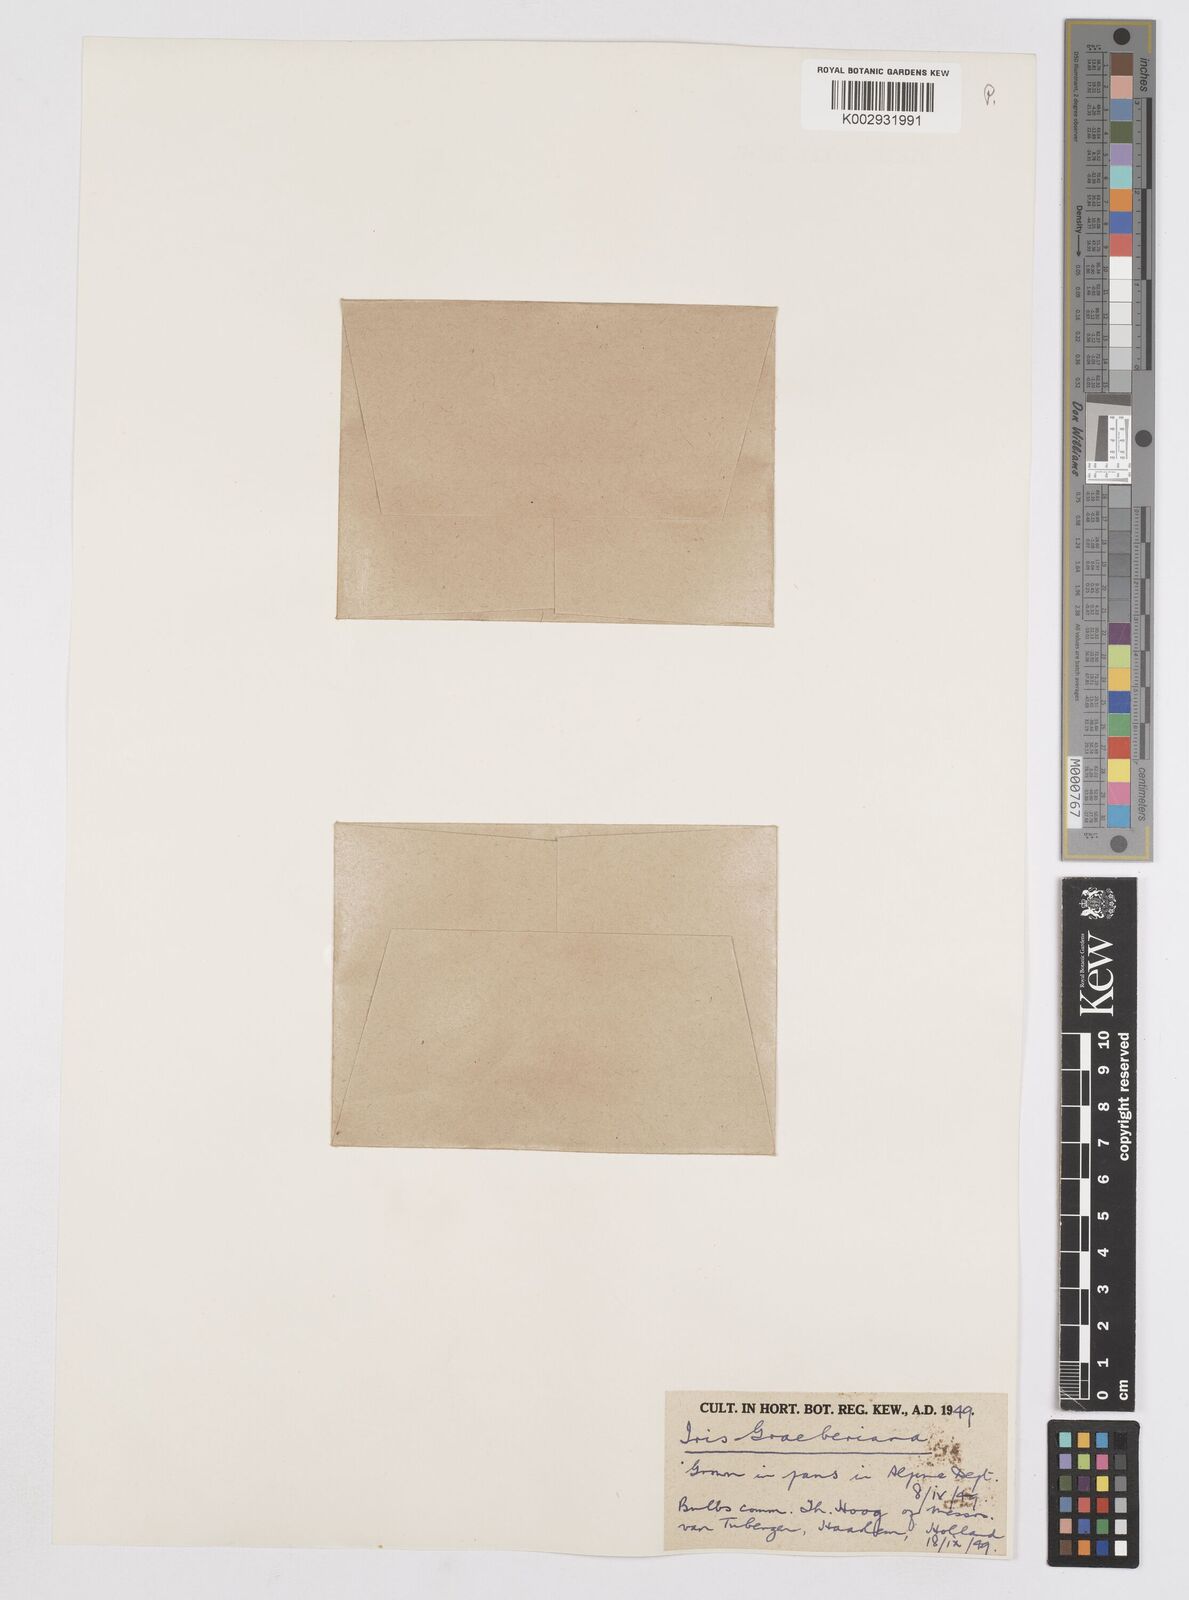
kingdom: Plantae
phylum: Tracheophyta
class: Liliopsida
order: Asparagales
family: Iridaceae
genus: Iris
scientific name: Iris graeberiana
